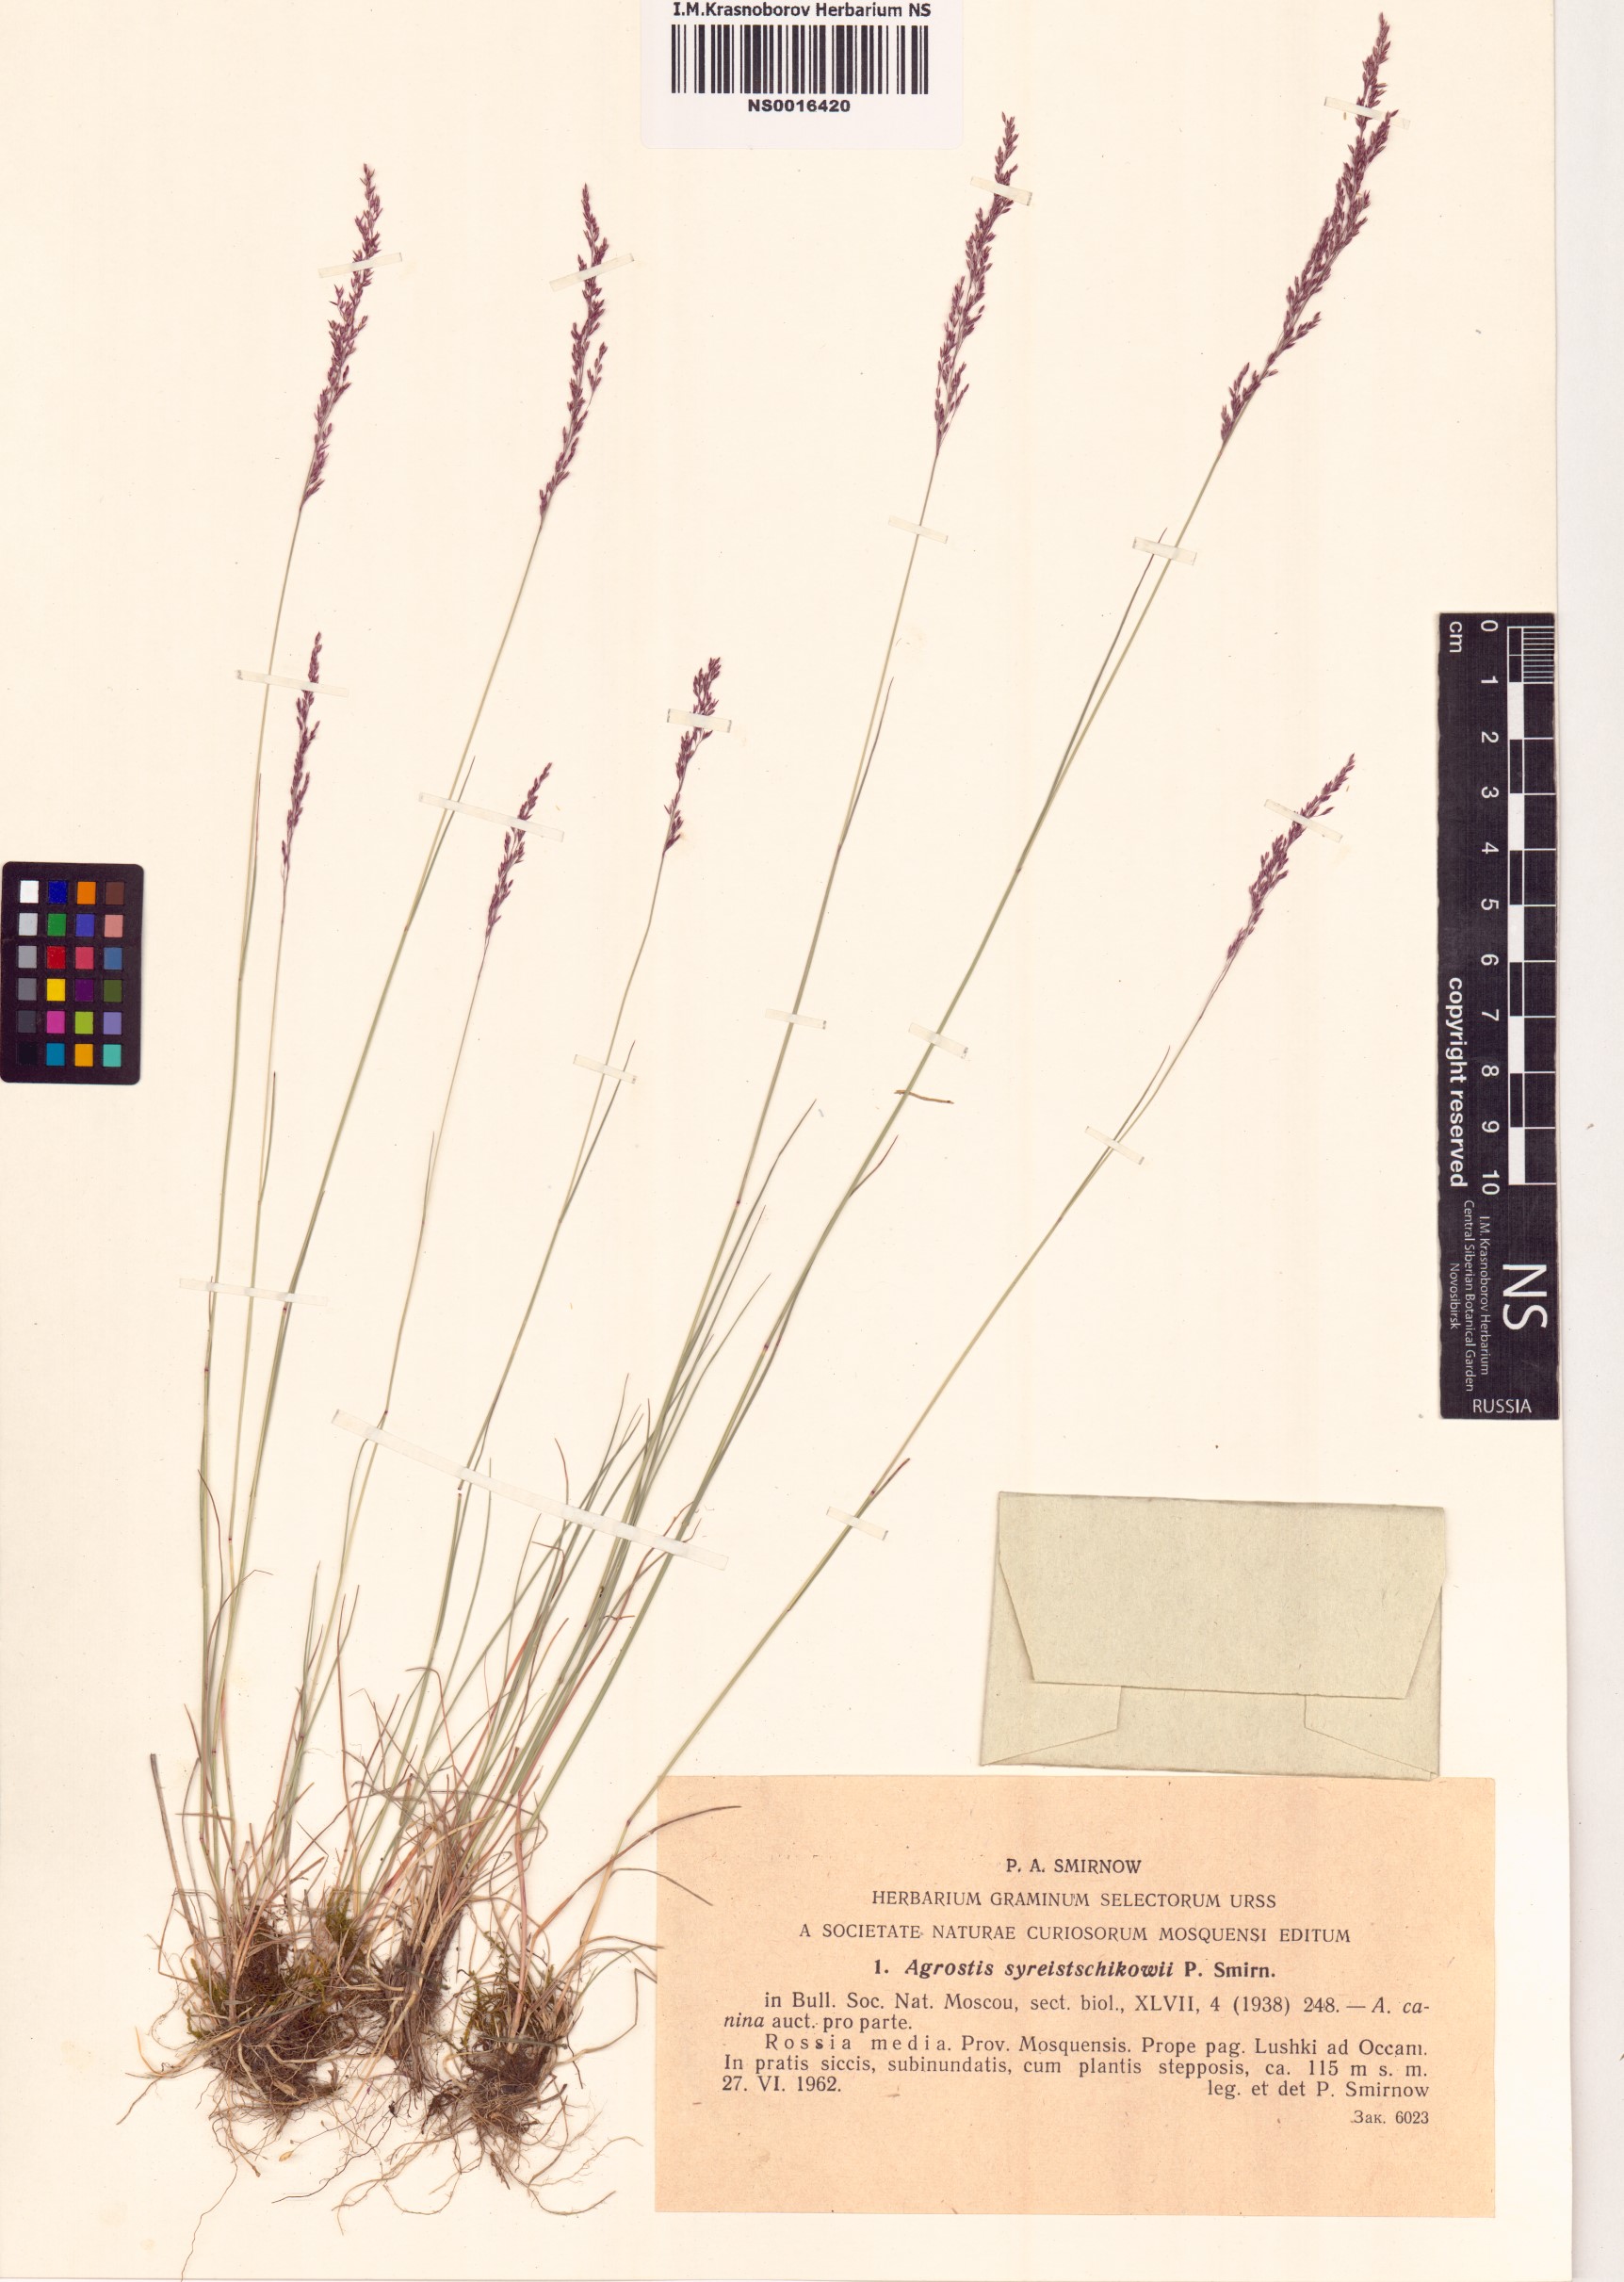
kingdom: Plantae
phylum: Tracheophyta
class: Liliopsida
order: Poales
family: Poaceae
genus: Agrostis
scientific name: Agrostis vinealis
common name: Brown bent
